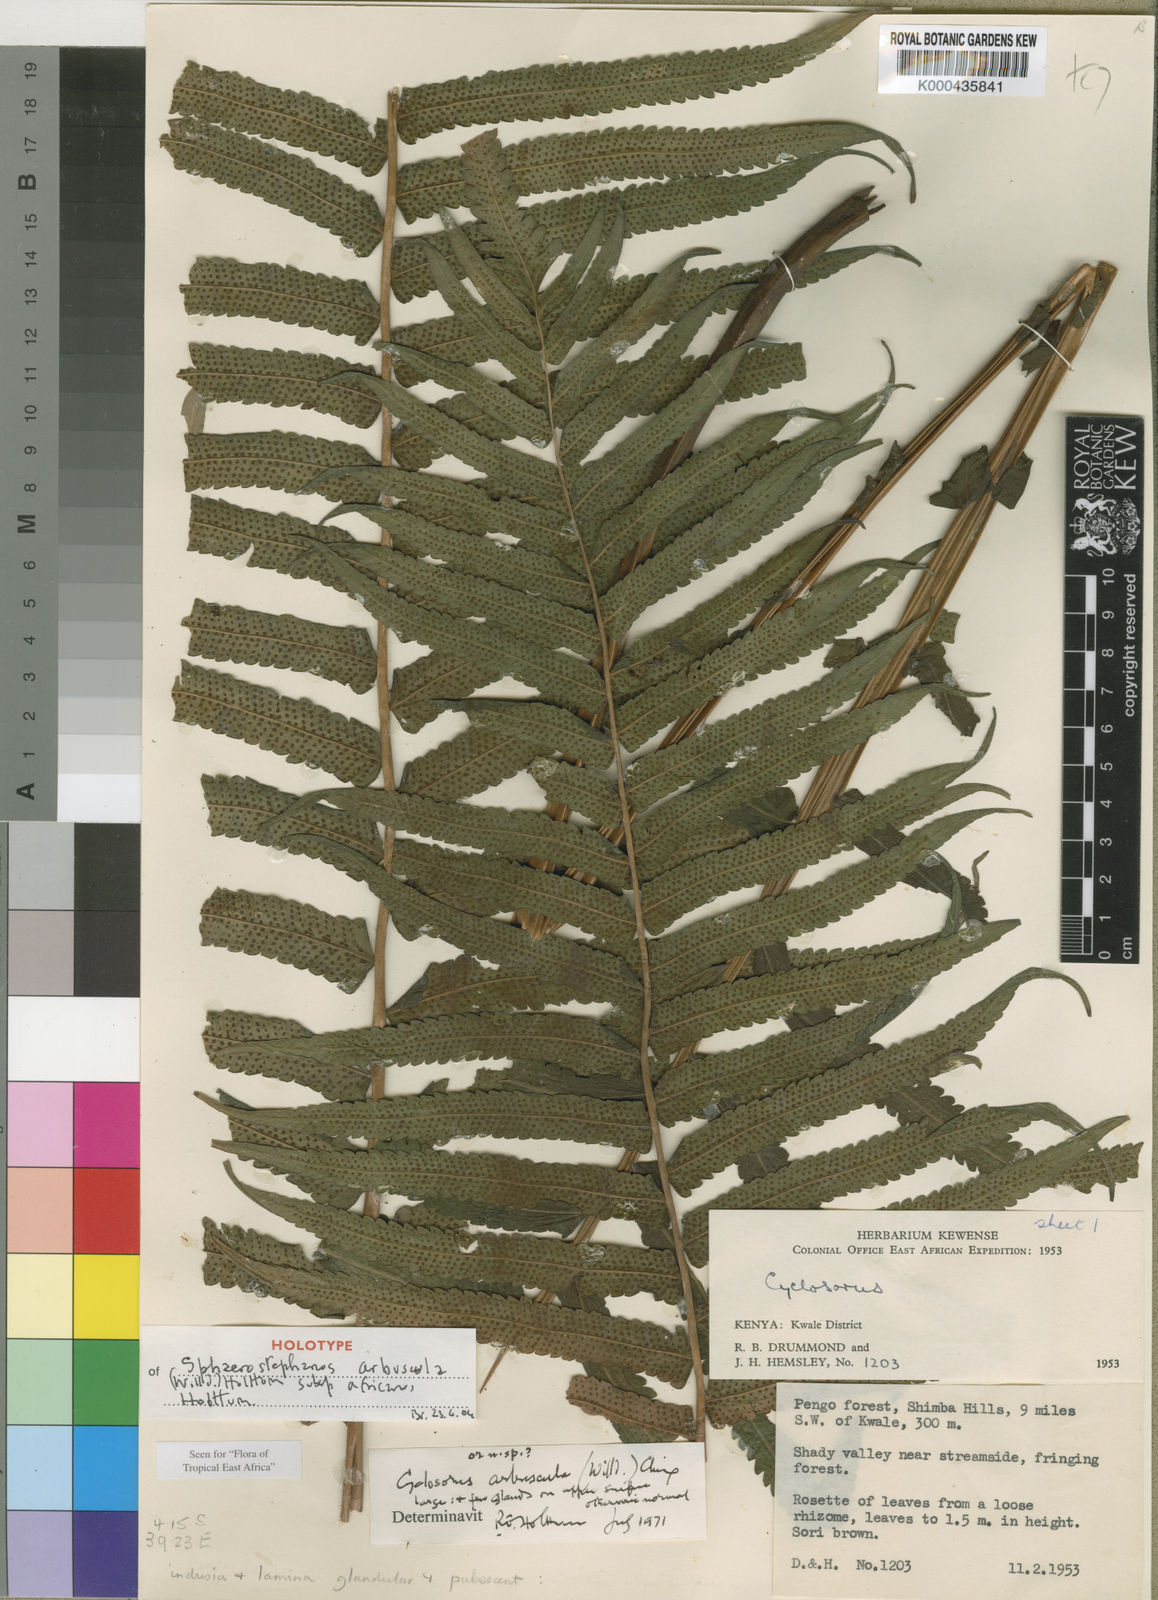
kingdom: Plantae
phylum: Tracheophyta
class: Polypodiopsida
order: Polypodiales
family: Thelypteridaceae
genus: Sphaerostephanos
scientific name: Sphaerostephanos arbusculus
